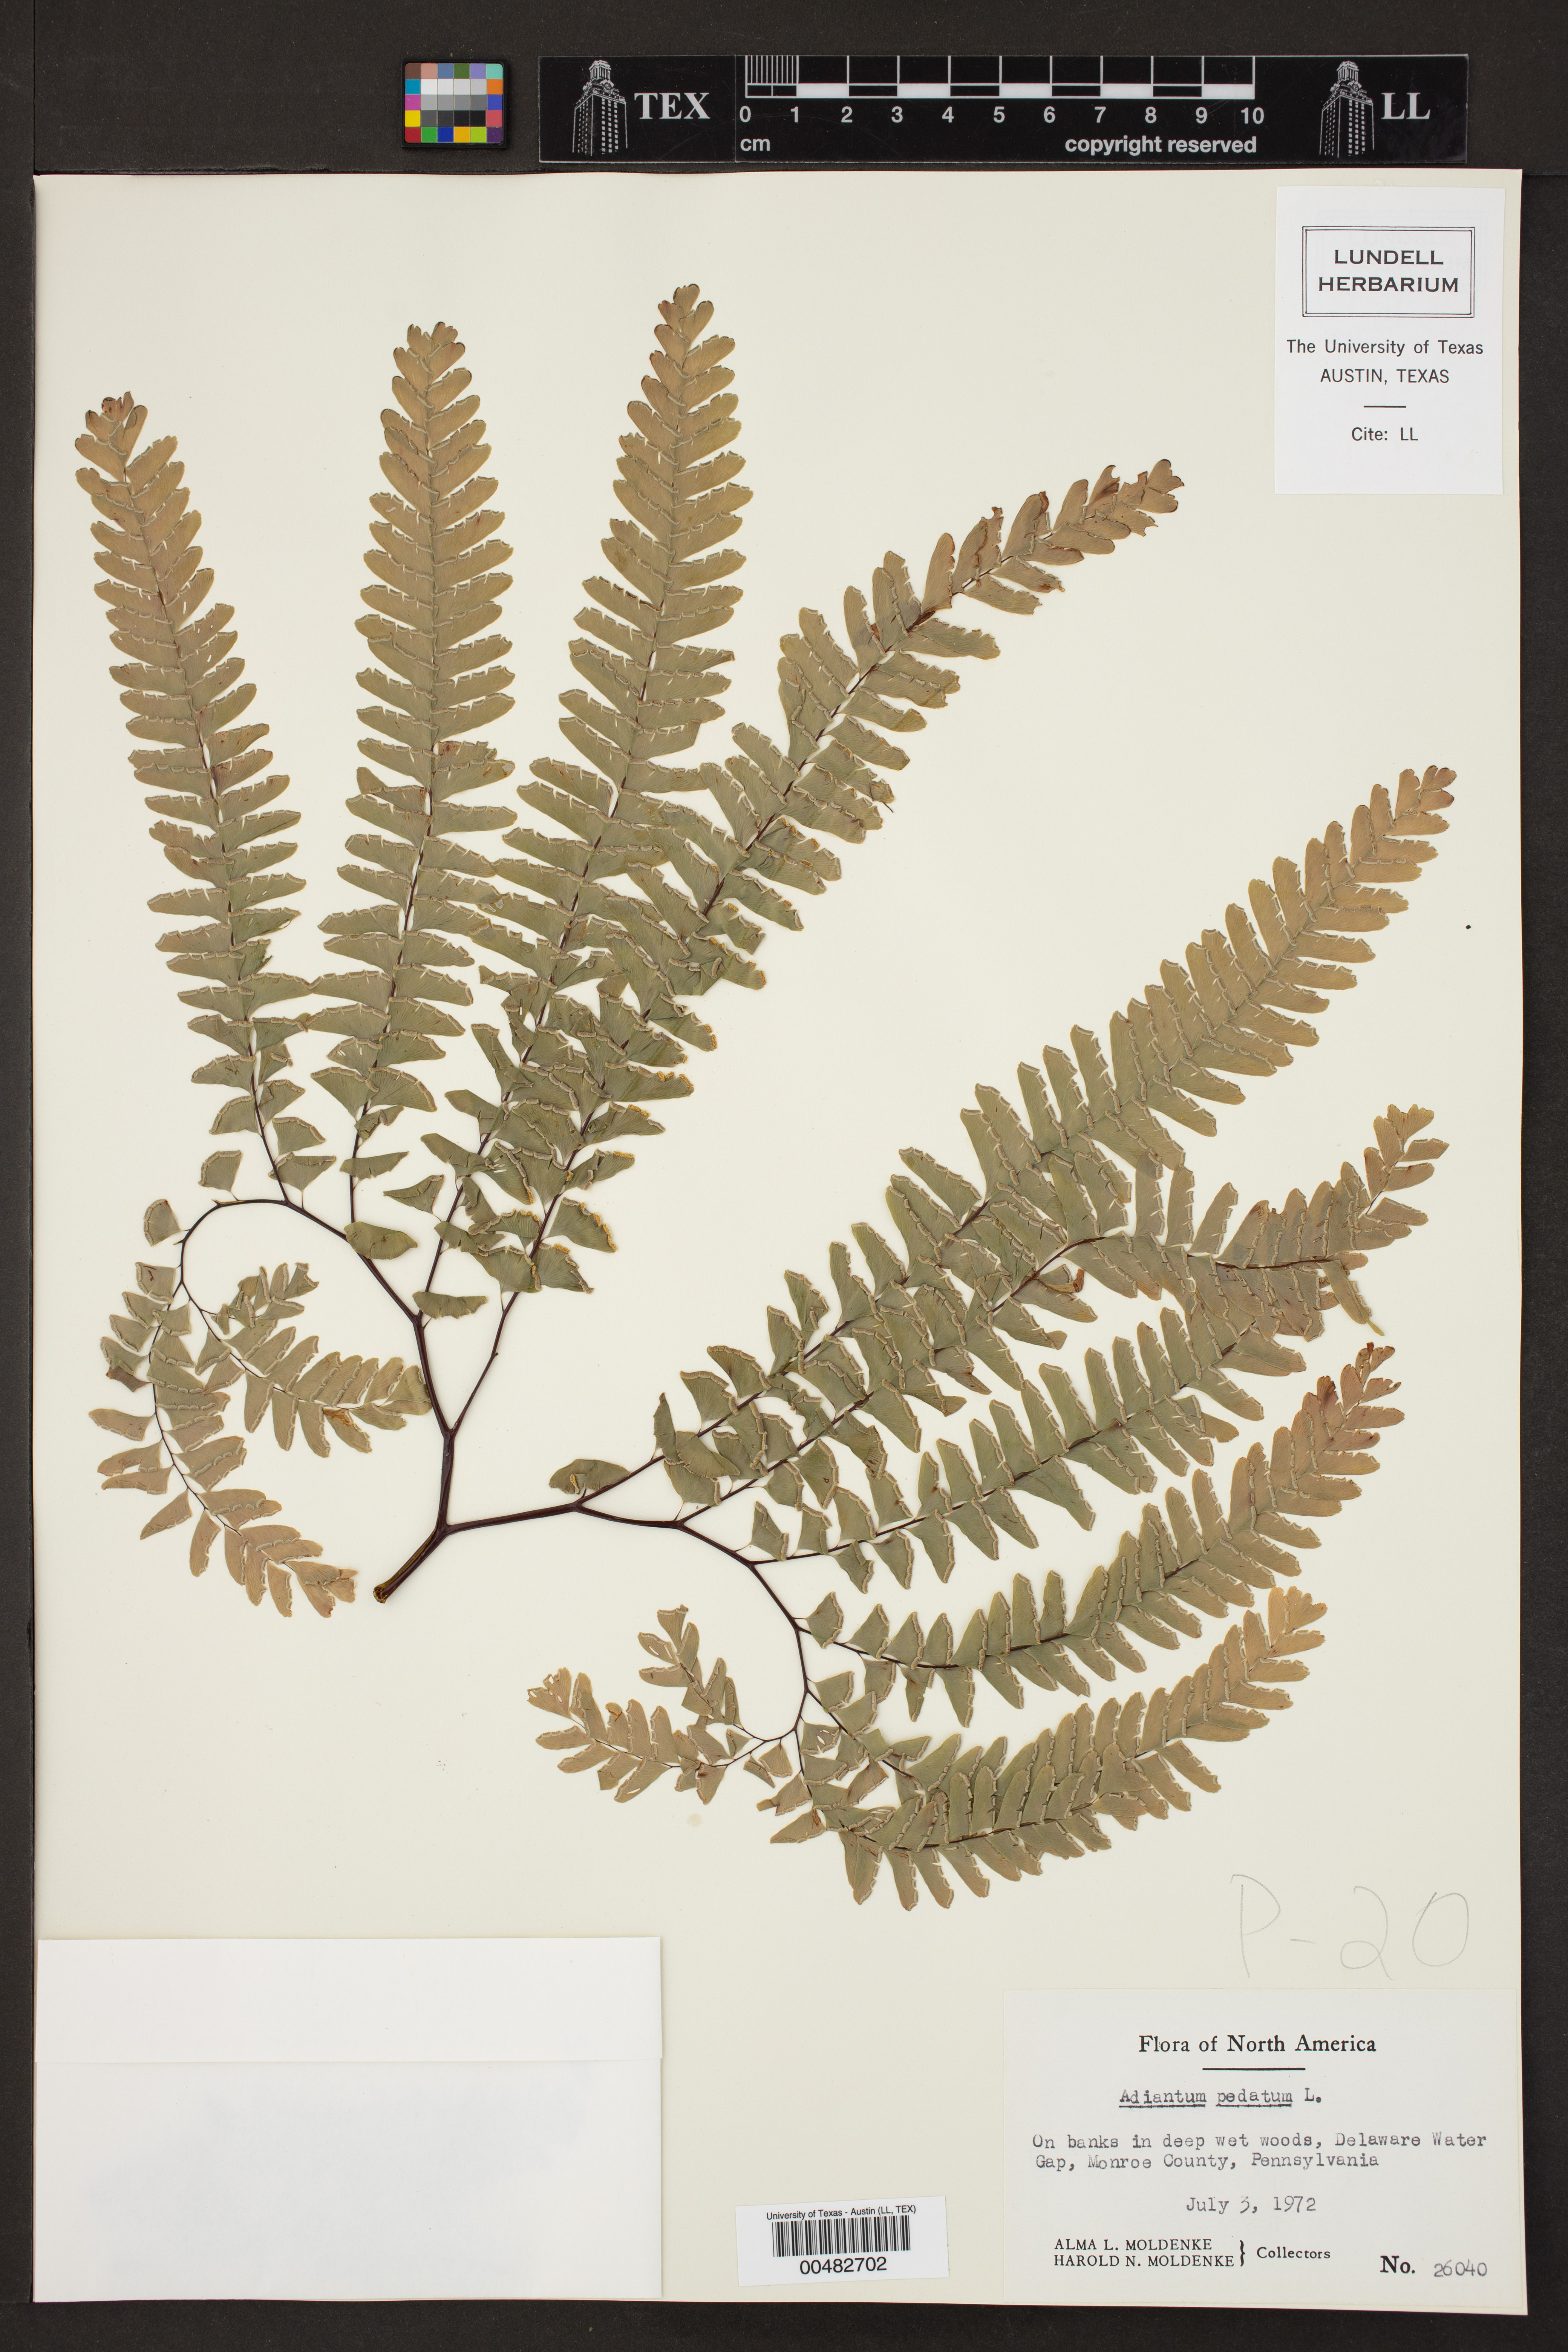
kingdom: Plantae
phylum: Tracheophyta
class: Polypodiopsida
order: Polypodiales
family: Pteridaceae
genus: Adiantum
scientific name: Adiantum pedatum
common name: Five-finger fern
